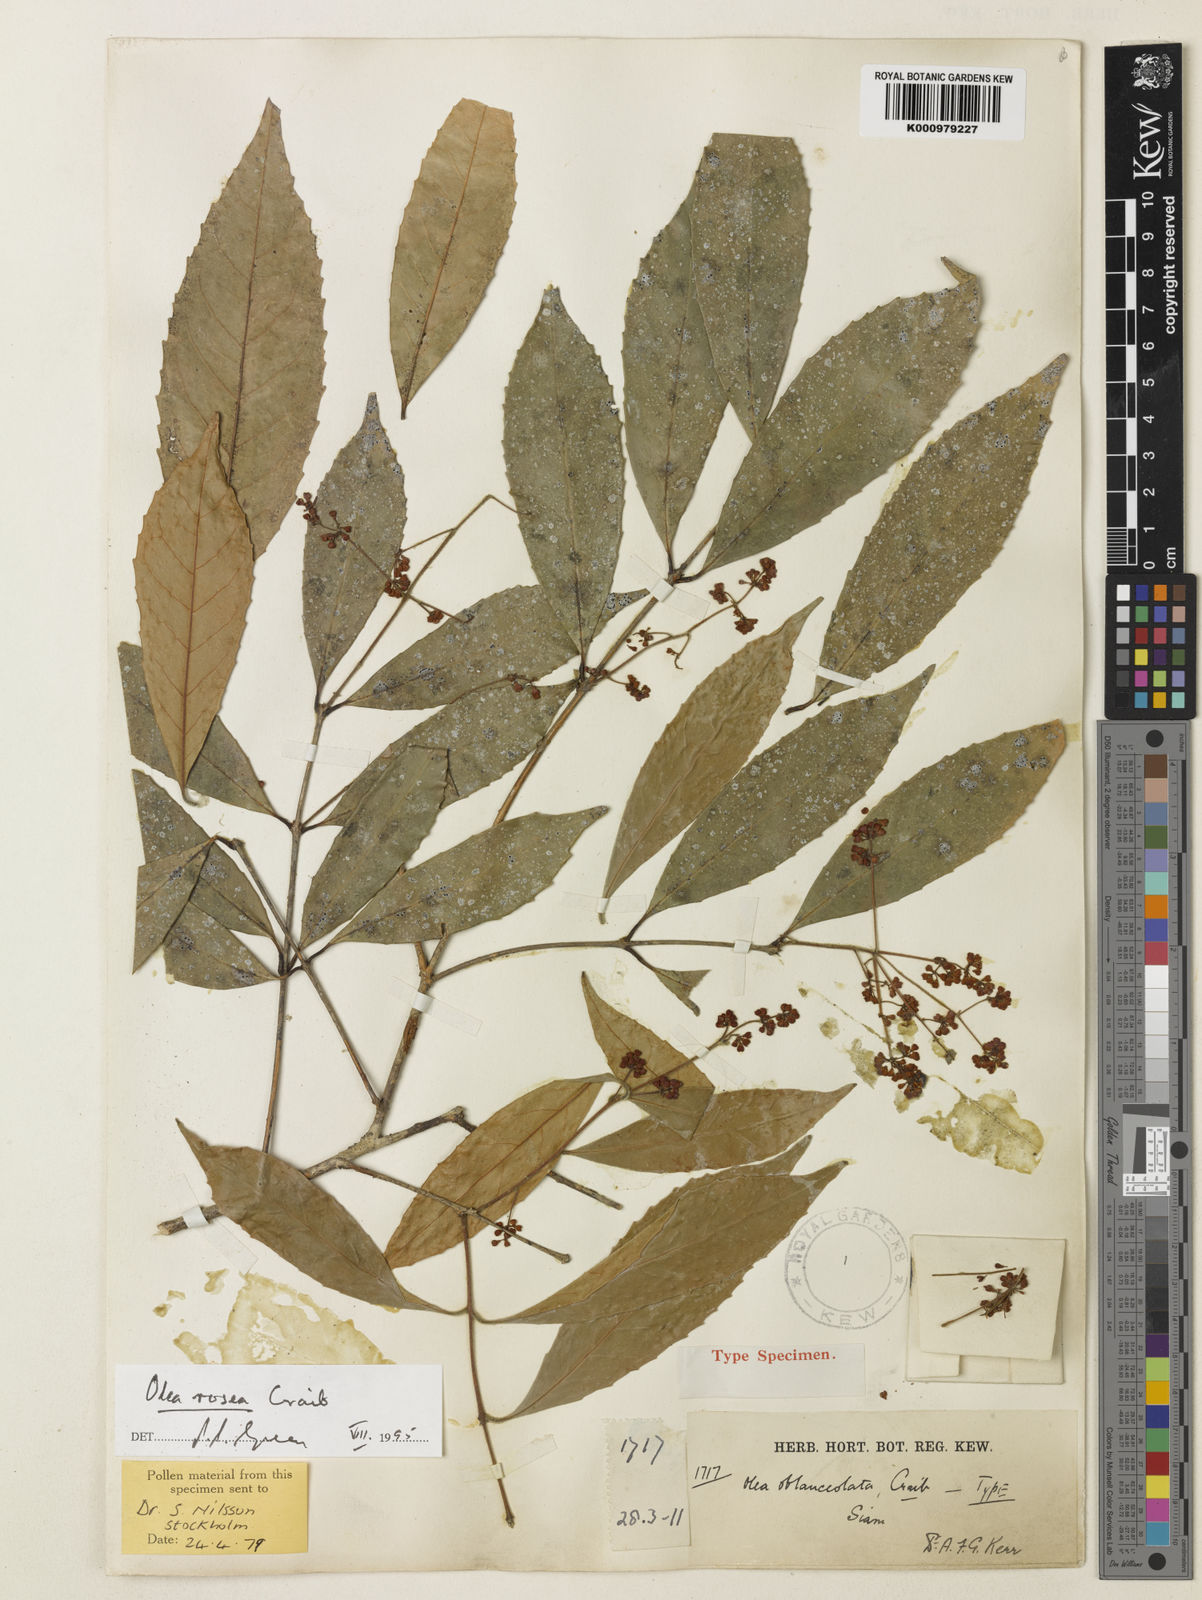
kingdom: Plantae
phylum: Tracheophyta
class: Magnoliopsida
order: Lamiales
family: Oleaceae
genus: Tetrapilus
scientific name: Tetrapilus roseus
